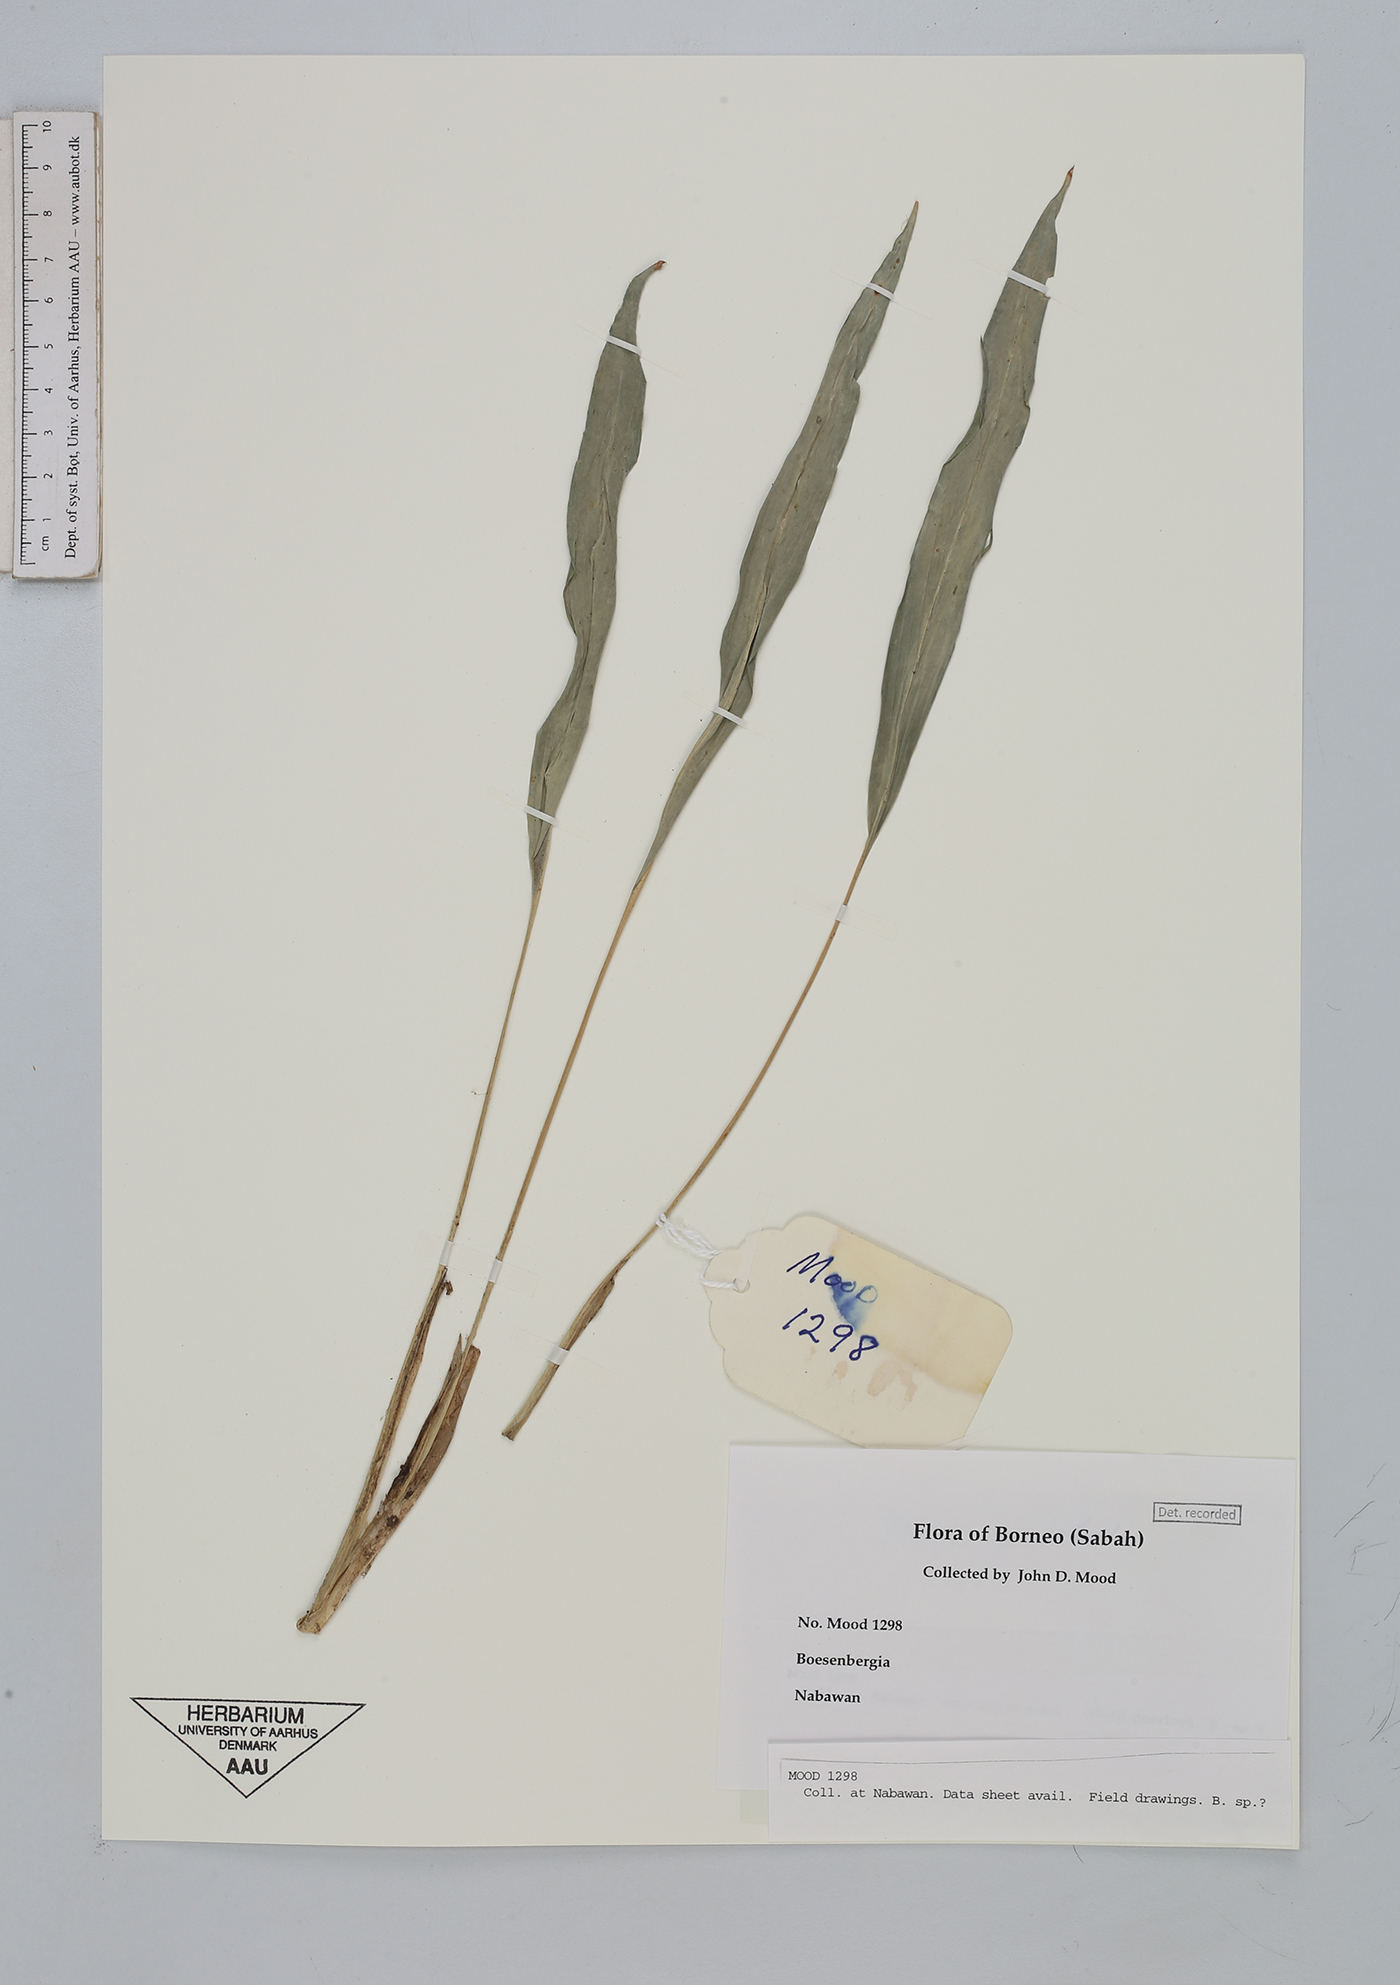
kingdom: Plantae
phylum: Tracheophyta
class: Liliopsida
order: Zingiberales
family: Zingiberaceae
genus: Boesenbergia
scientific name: Boesenbergia
